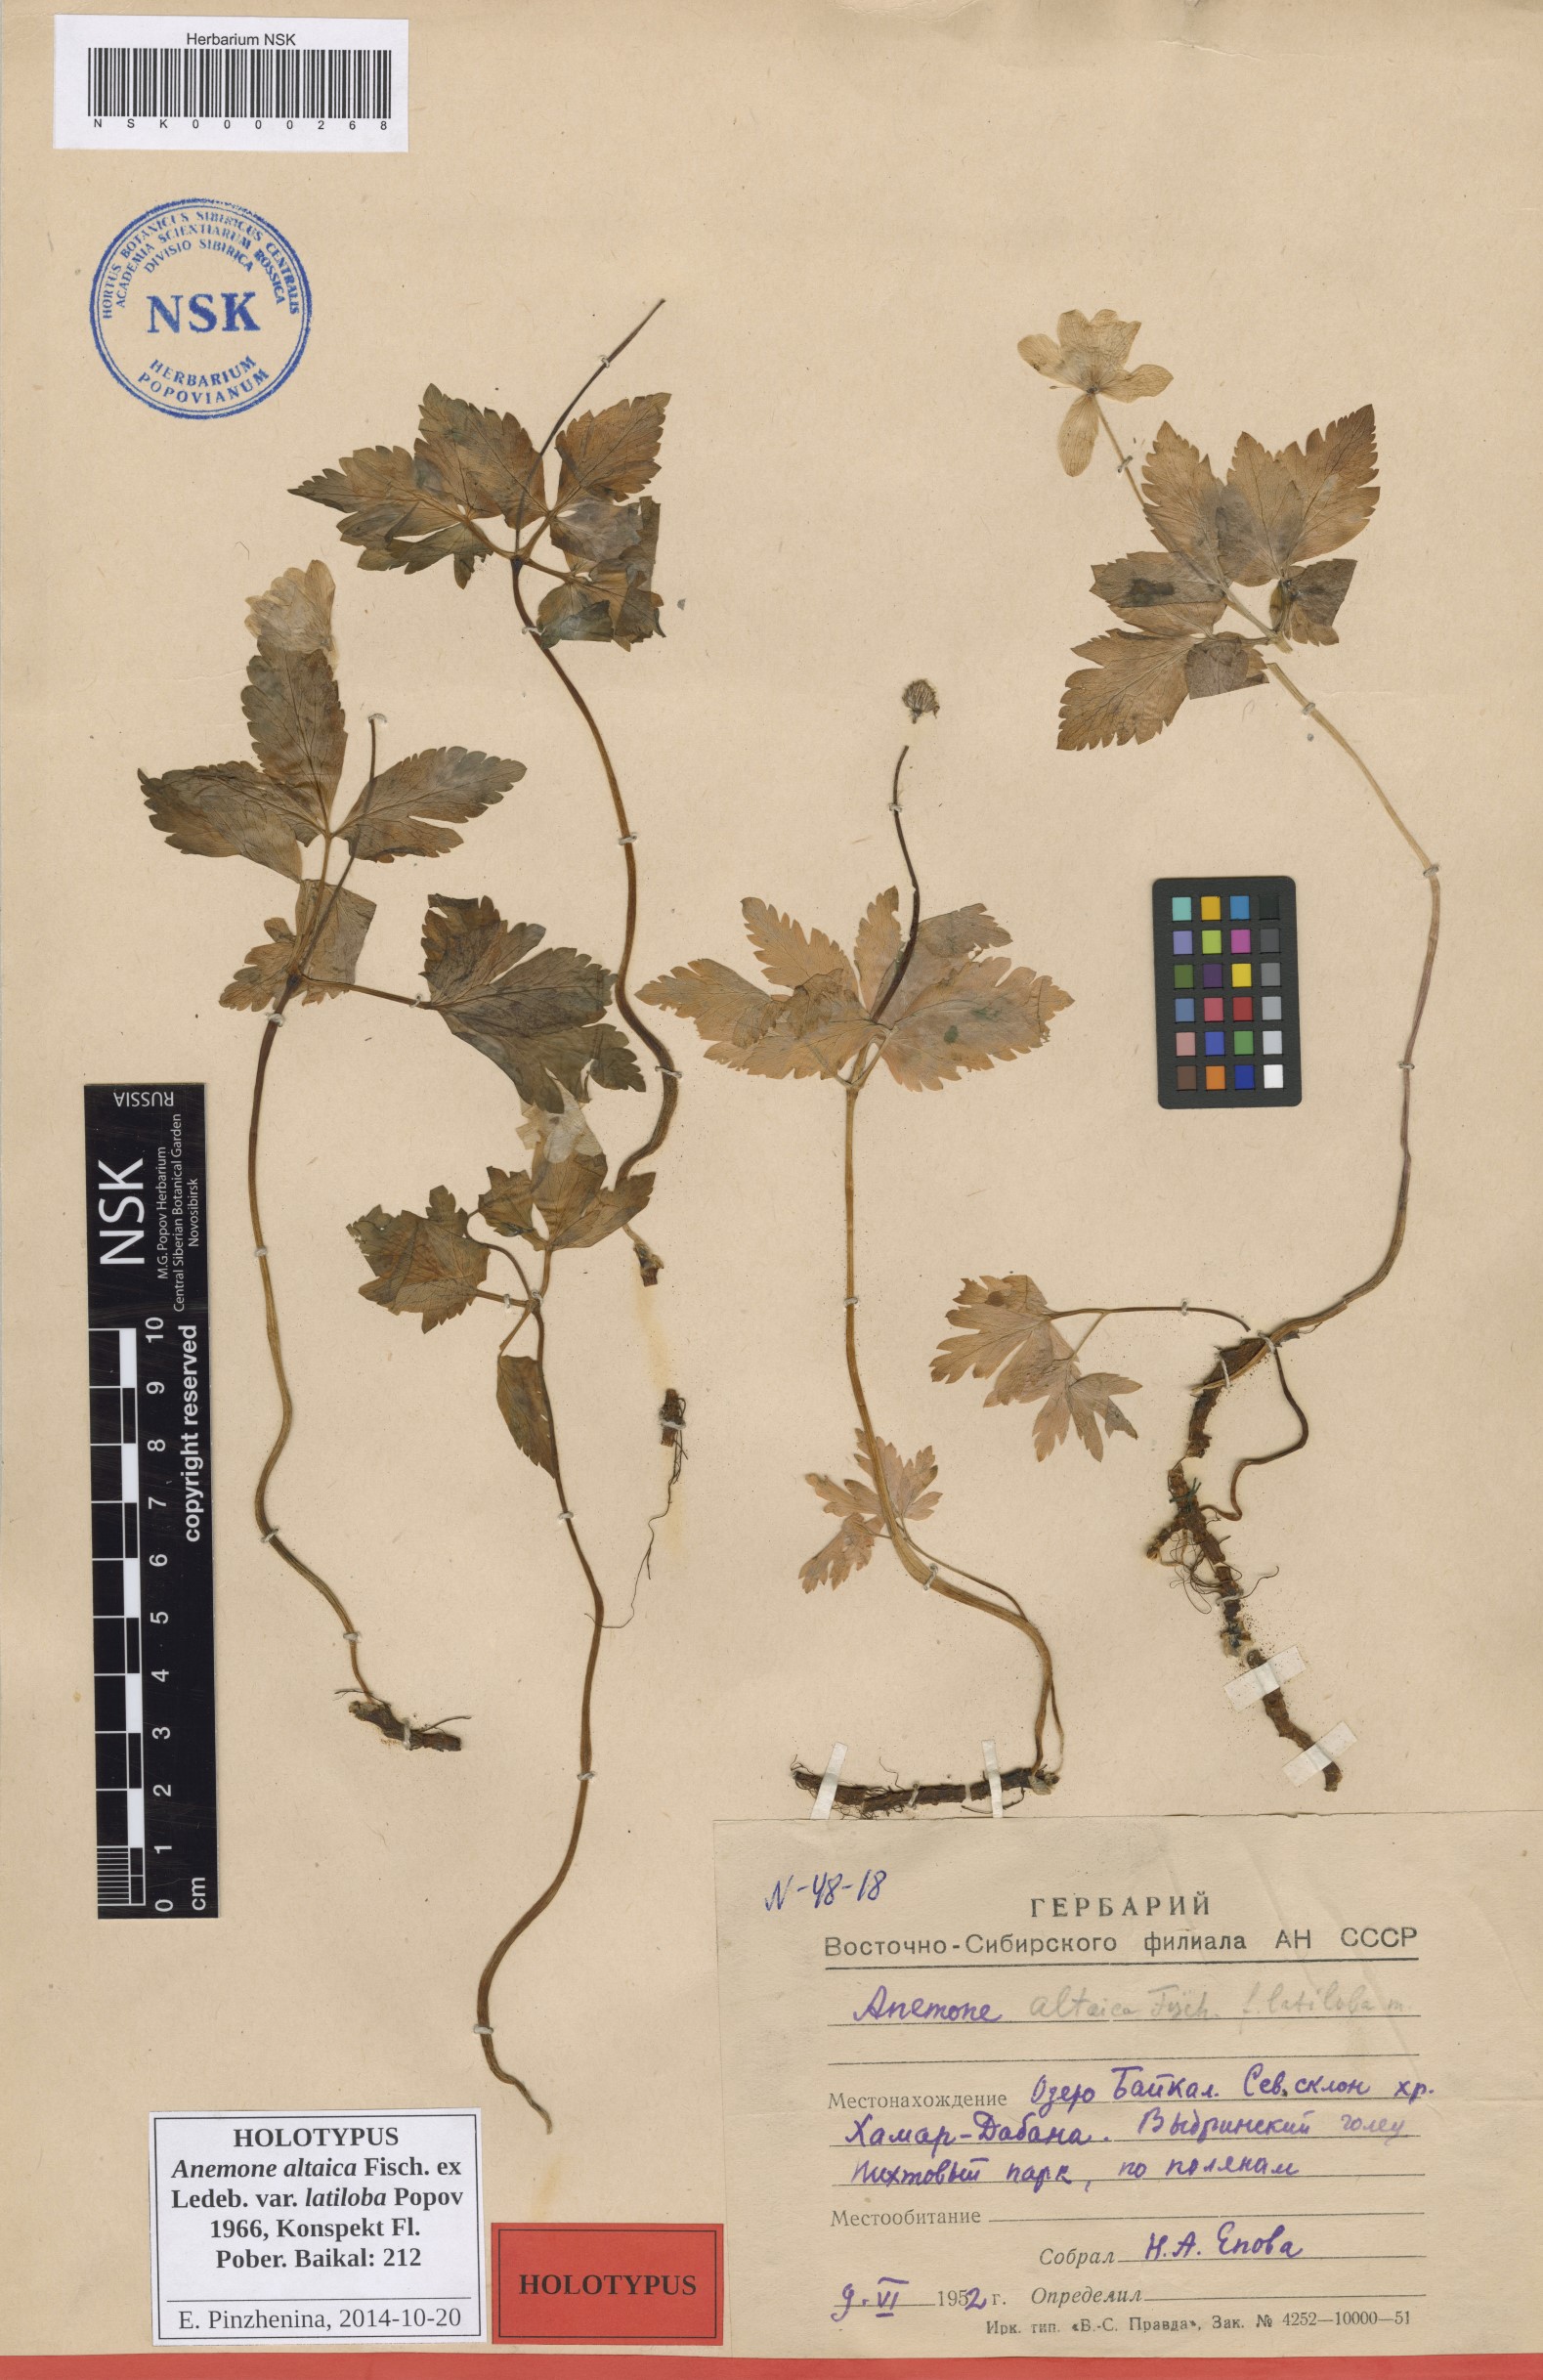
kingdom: Plantae
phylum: Tracheophyta
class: Magnoliopsida
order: Ranunculales
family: Ranunculaceae
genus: Anemone
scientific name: Anemone altaica
